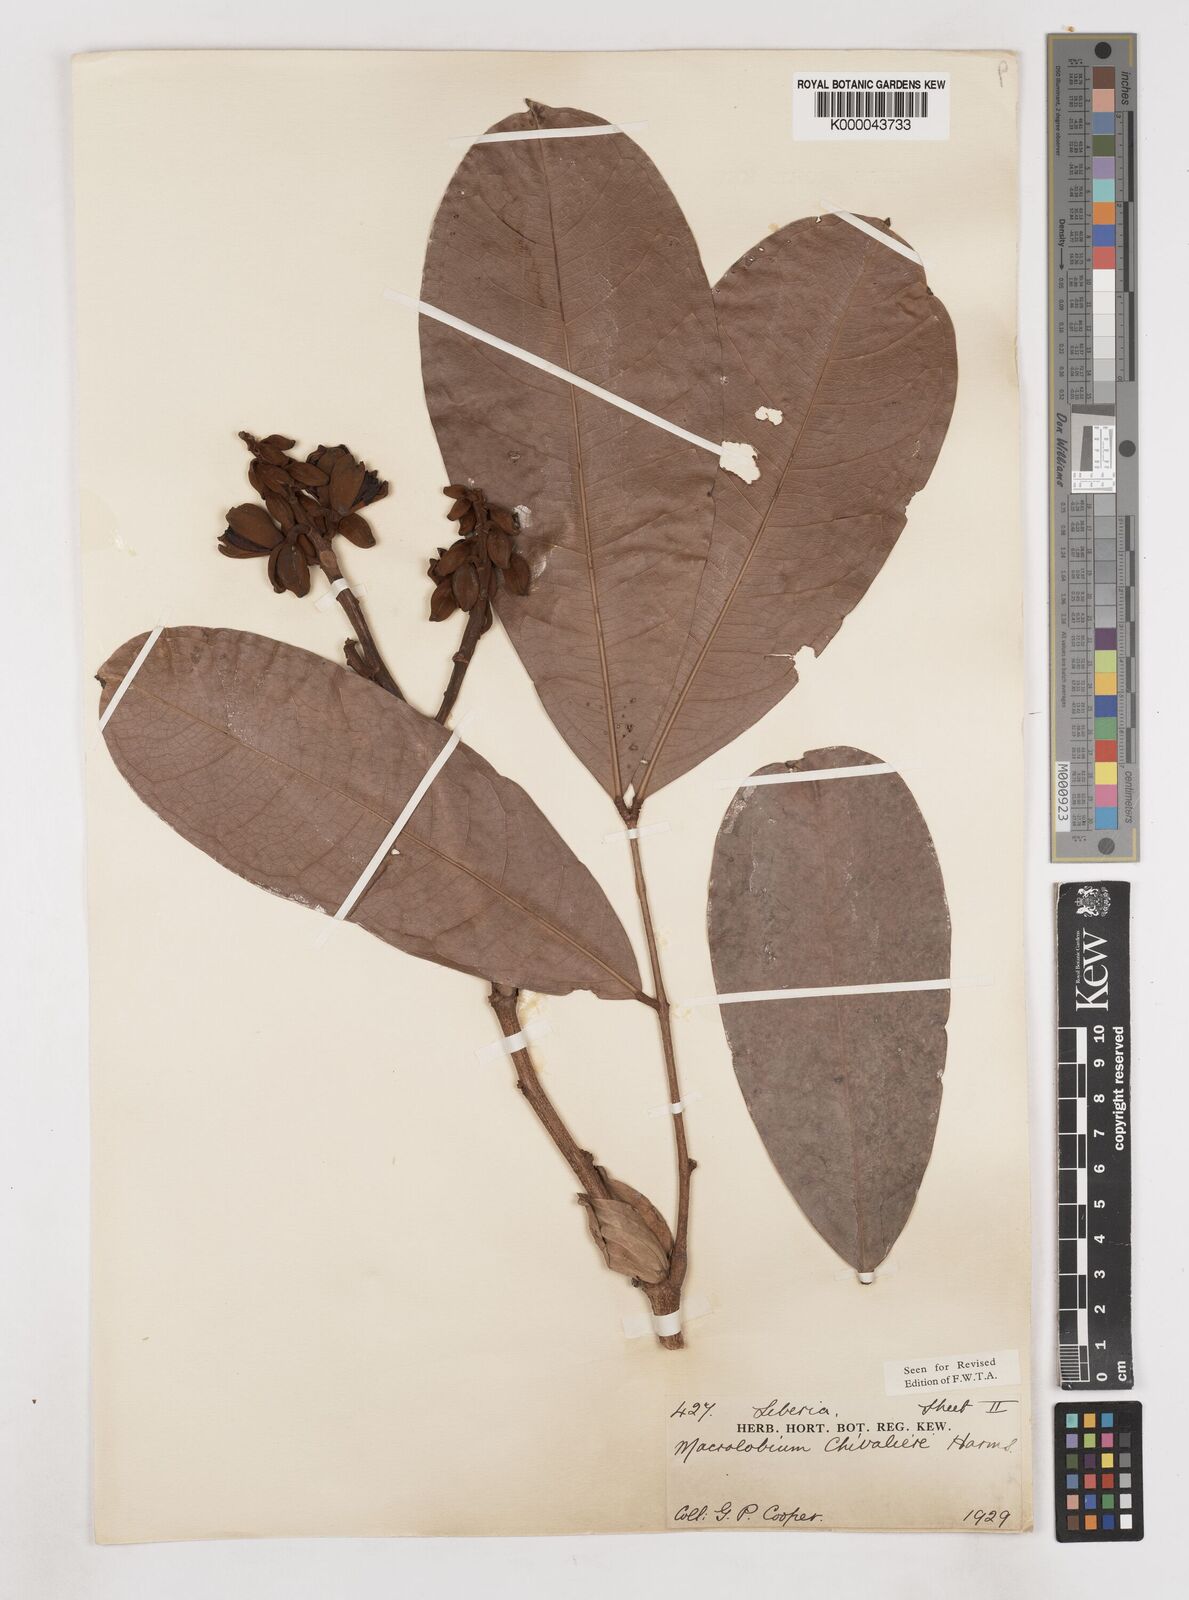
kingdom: Plantae
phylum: Tracheophyta
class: Magnoliopsida
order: Fabales
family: Fabaceae
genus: Gilbertiodendron
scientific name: Gilbertiodendron
